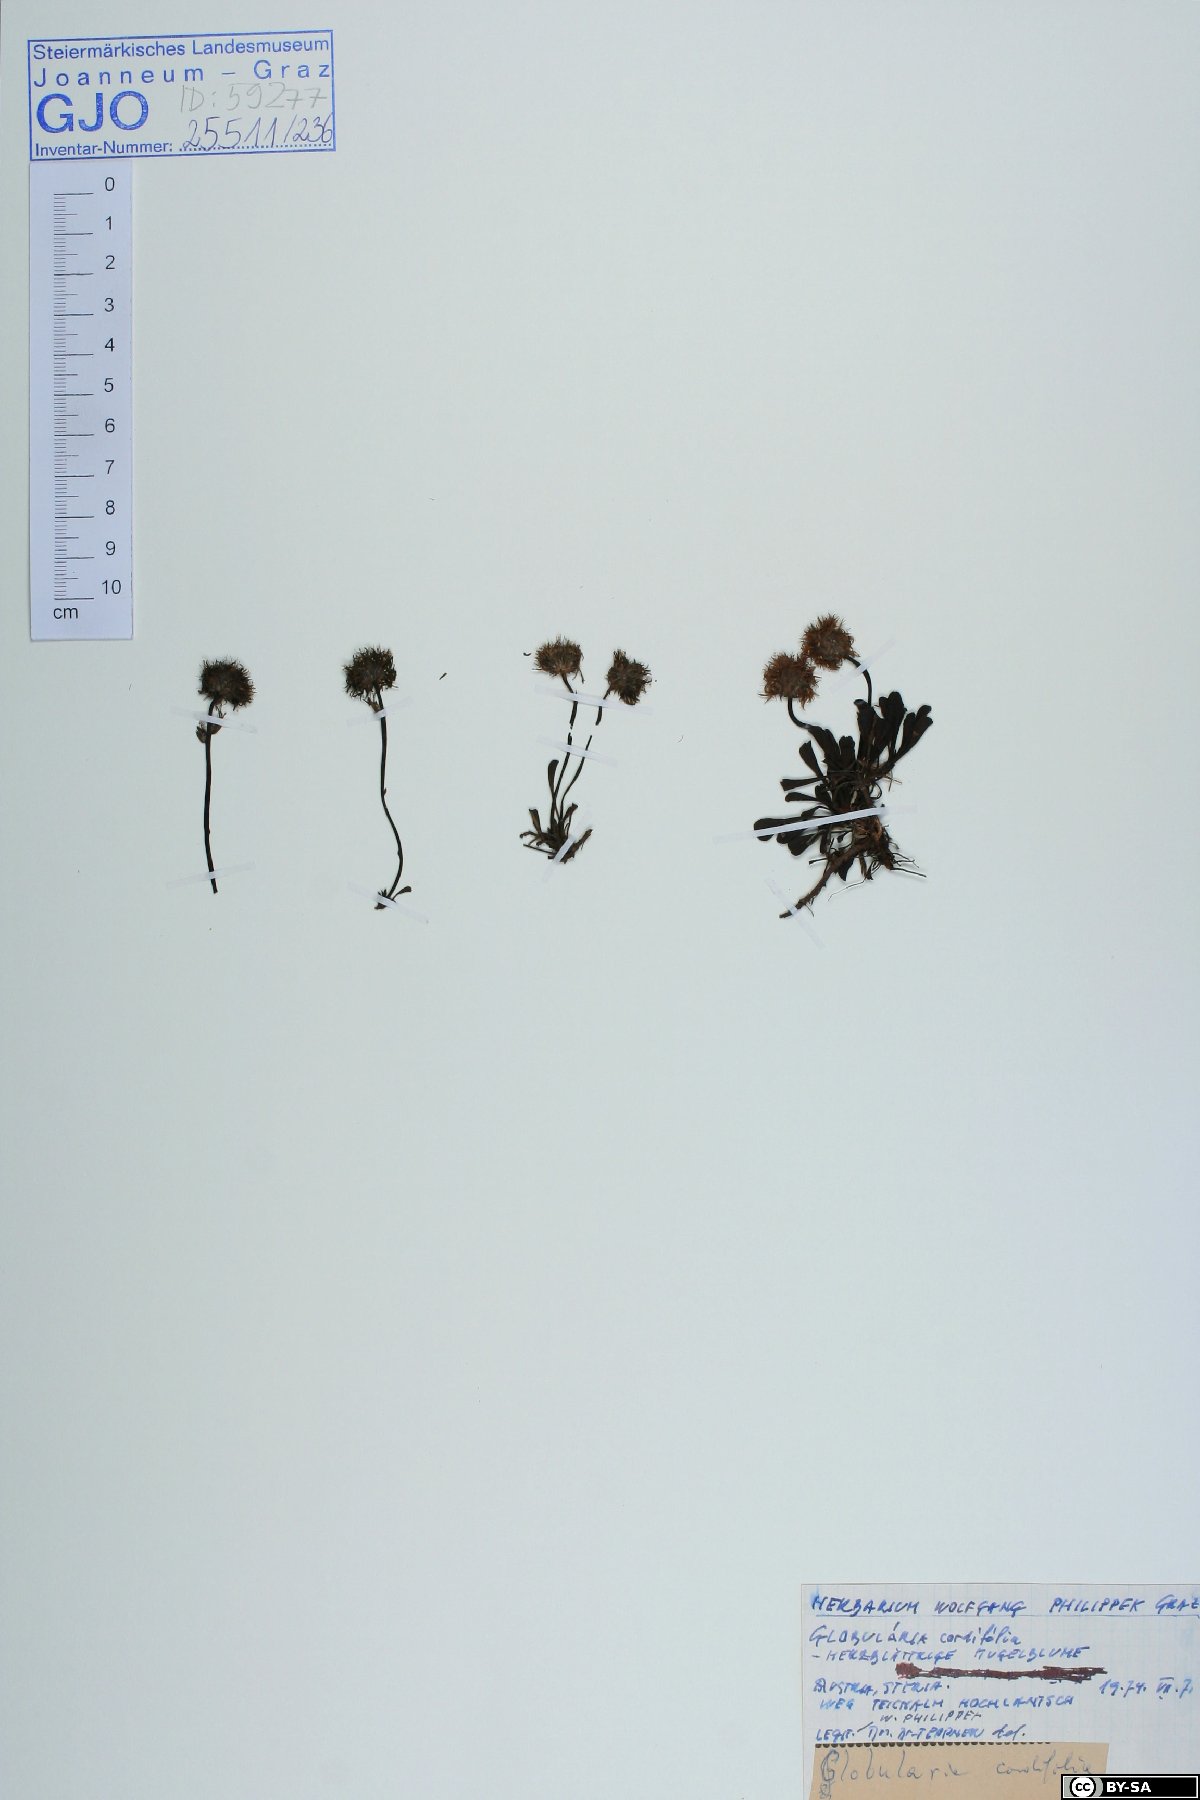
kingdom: Plantae
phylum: Tracheophyta
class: Magnoliopsida
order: Lamiales
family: Plantaginaceae
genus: Globularia
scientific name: Globularia cordifolia
